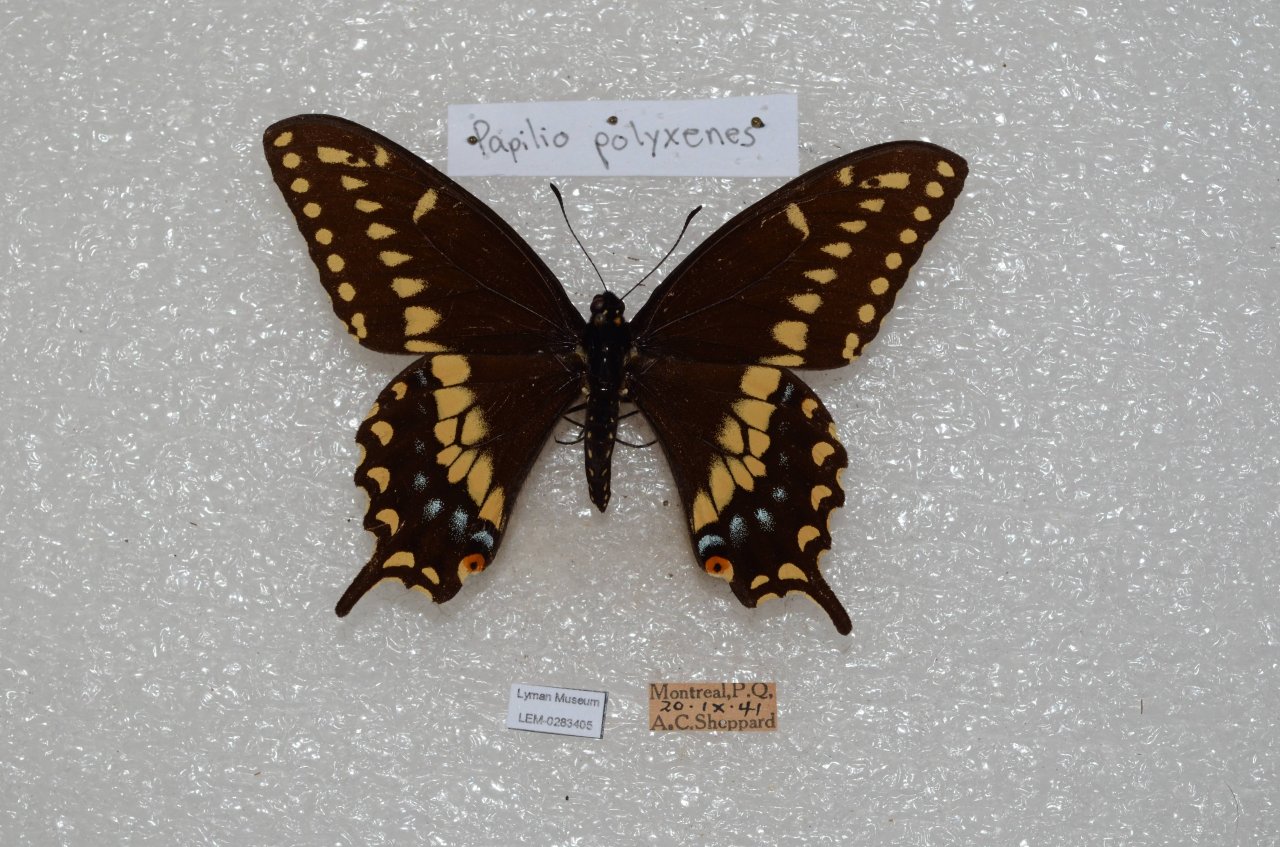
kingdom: Animalia
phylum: Arthropoda
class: Insecta
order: Lepidoptera
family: Papilionidae
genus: Papilio
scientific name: Papilio polyxenes
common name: Black Swallowtail
